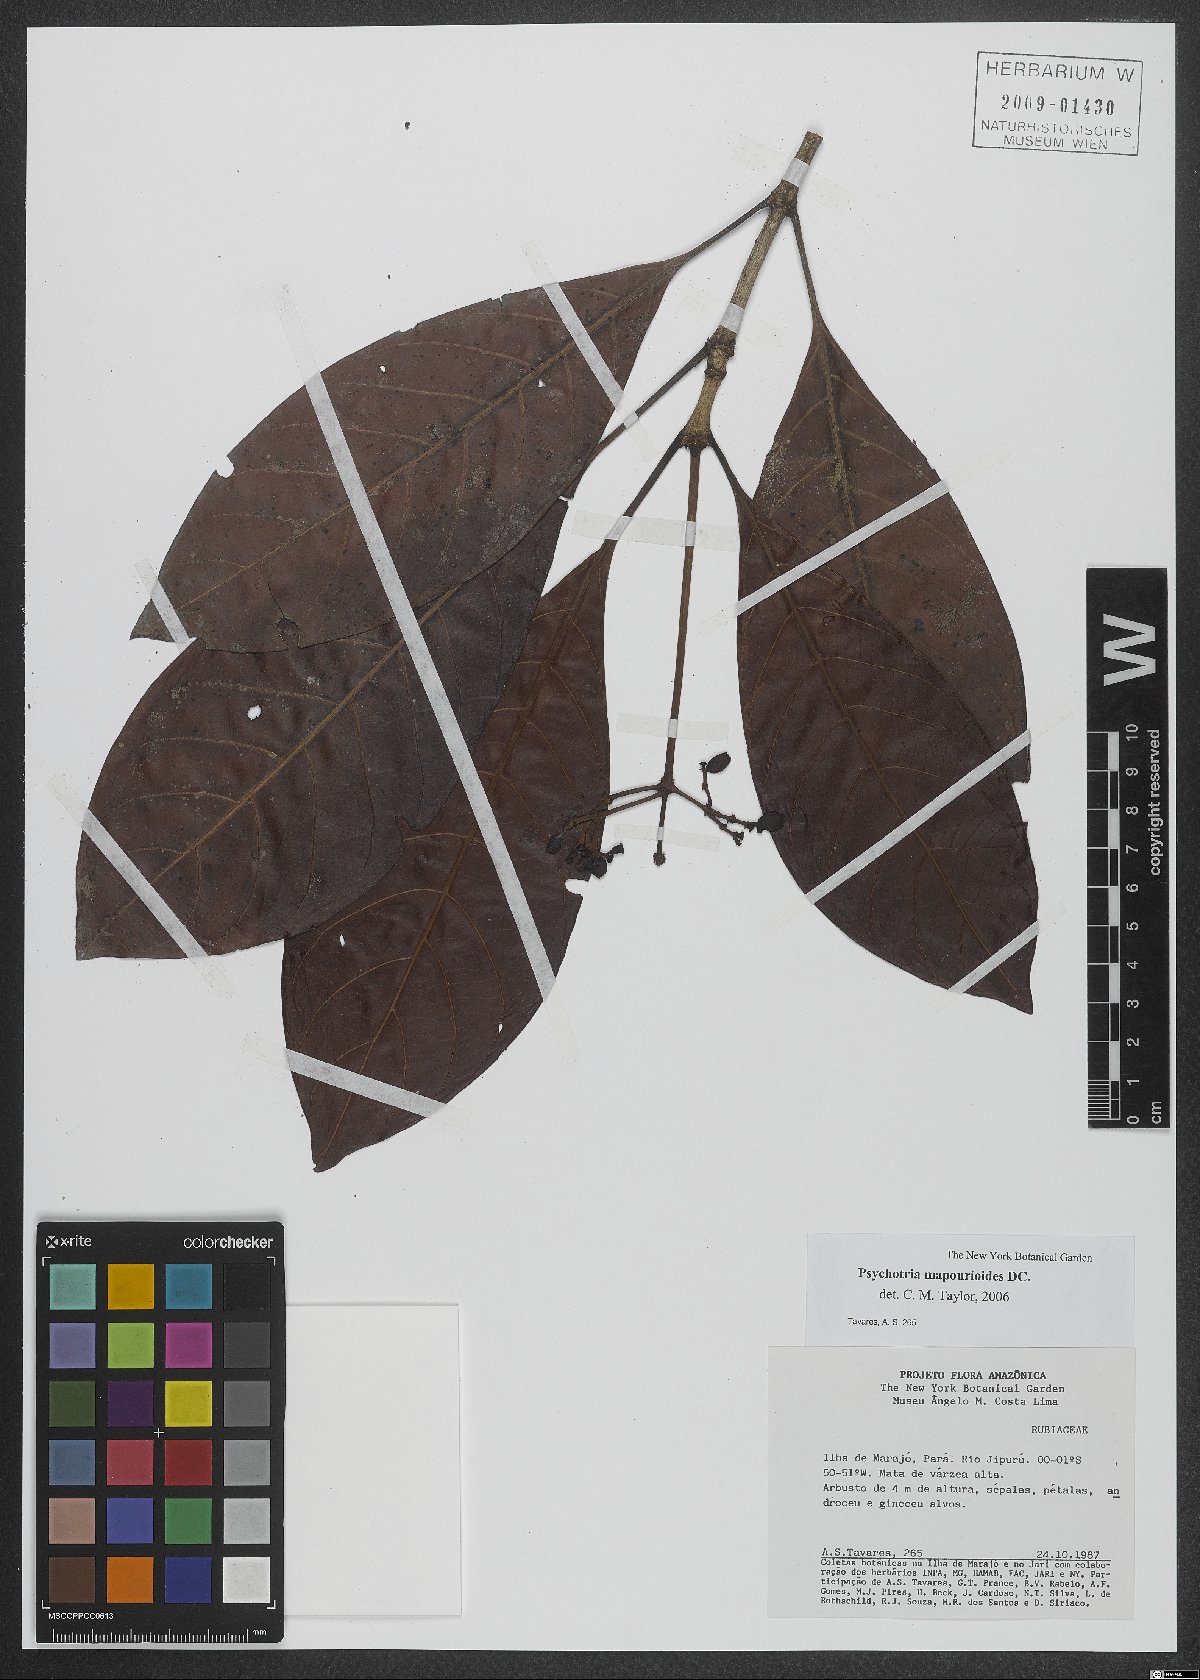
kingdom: Plantae
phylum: Tracheophyta
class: Magnoliopsida
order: Gentianales
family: Rubiaceae
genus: Psychotria
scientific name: Psychotria pedunculosa
